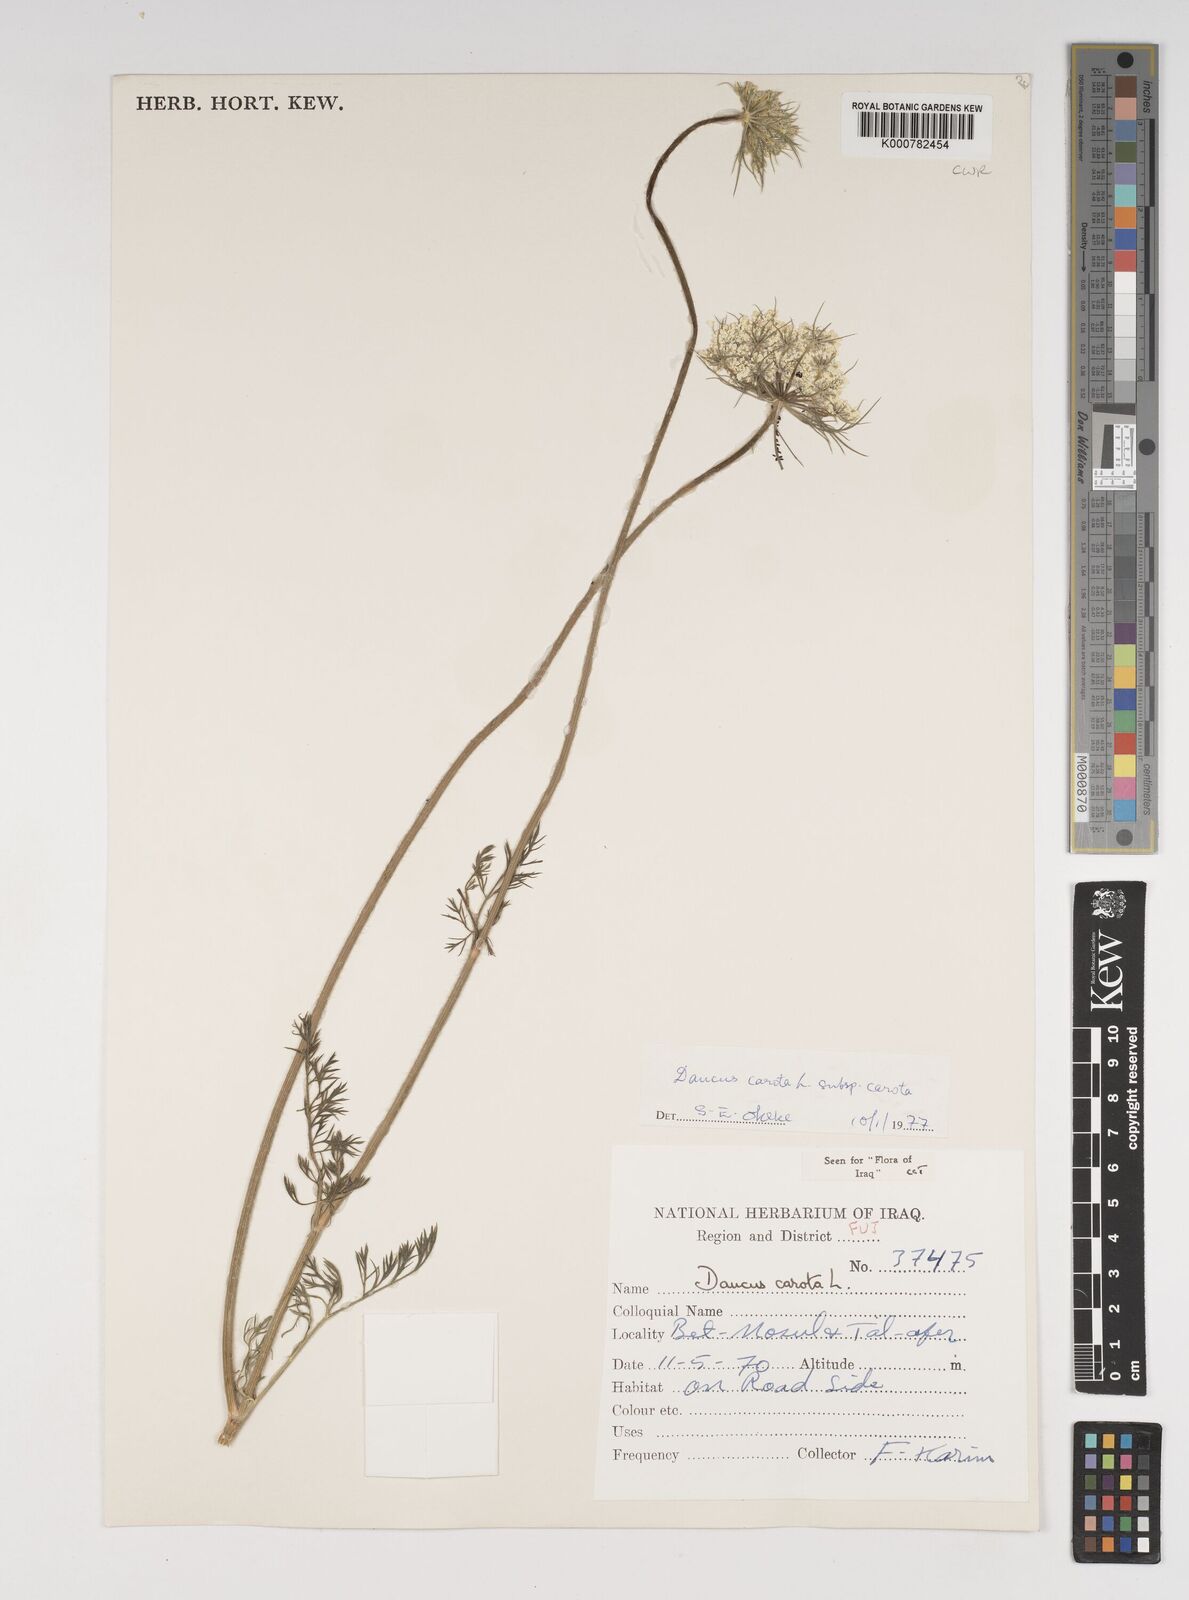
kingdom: Plantae
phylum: Tracheophyta
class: Magnoliopsida
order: Apiales
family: Apiaceae
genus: Daucus
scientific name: Daucus carota
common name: Wild carrot
